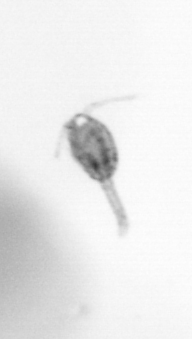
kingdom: Animalia
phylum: Arthropoda
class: Copepoda
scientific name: Copepoda
